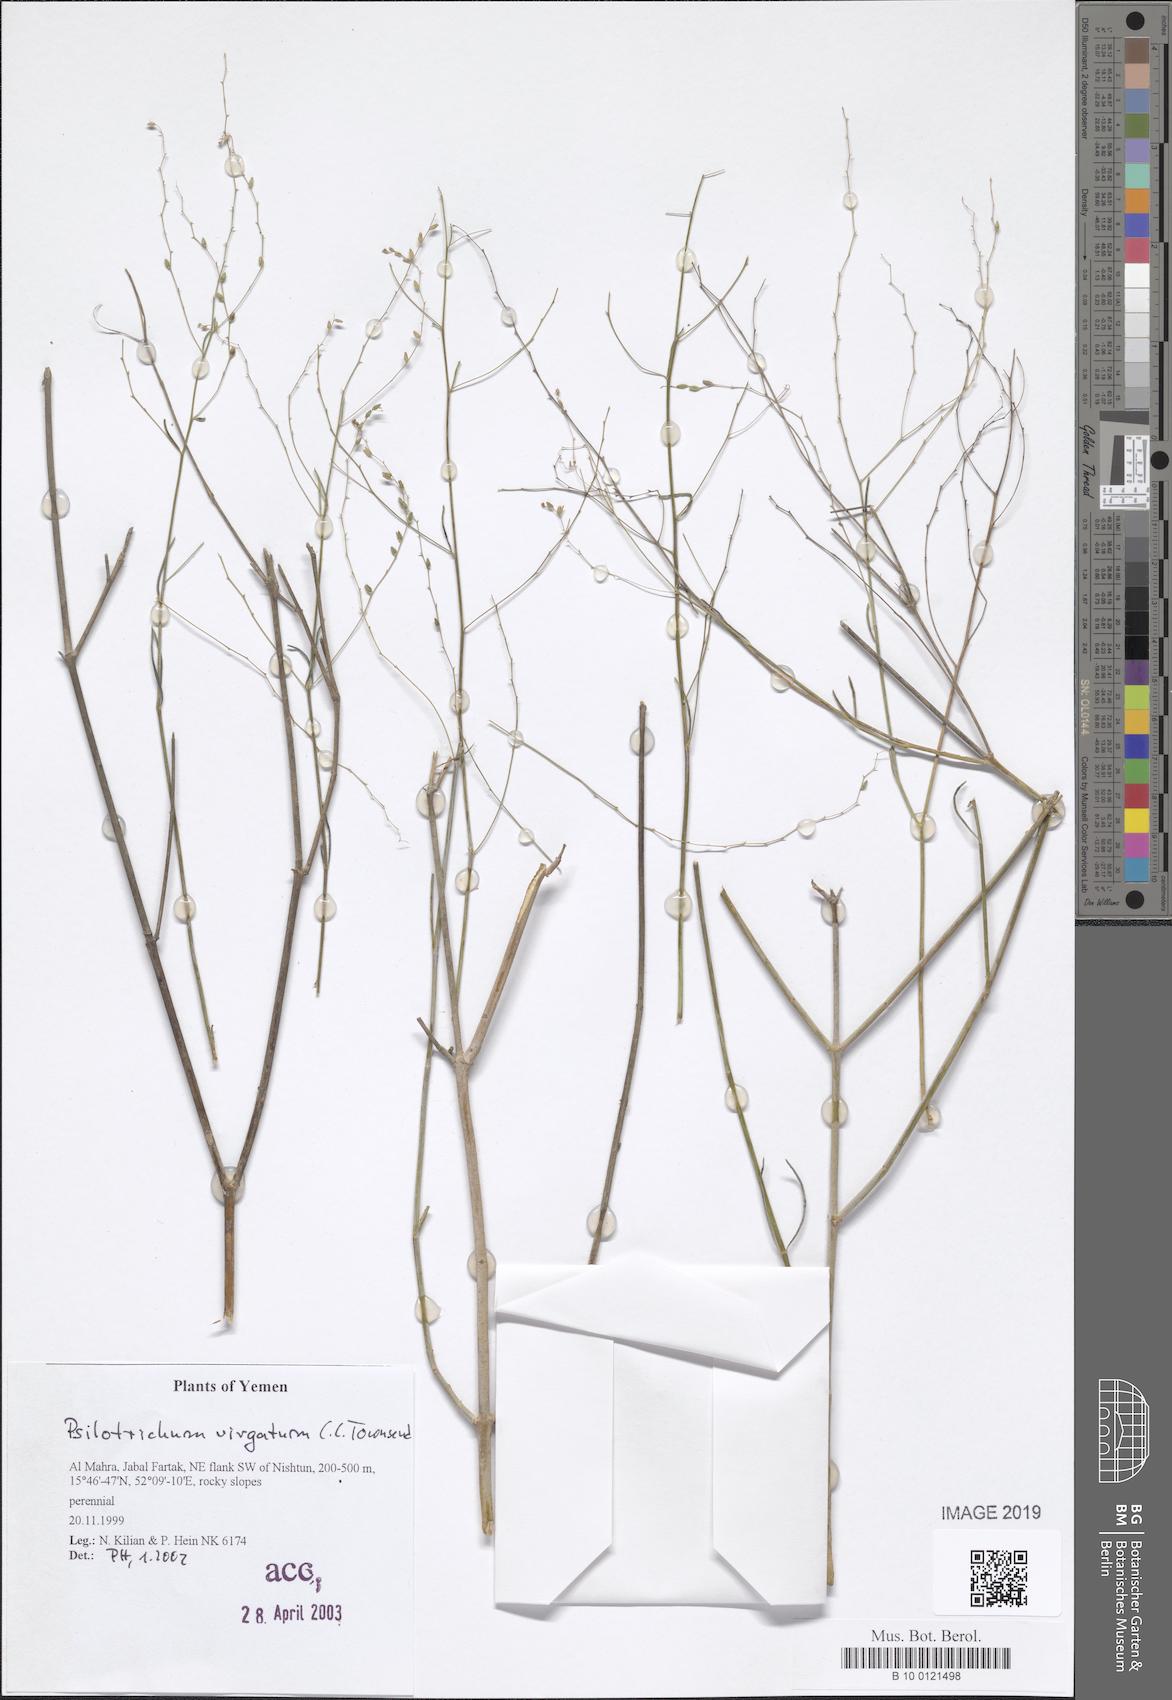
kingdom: Plantae
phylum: Tracheophyta
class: Magnoliopsida
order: Caryophyllales
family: Amaranthaceae
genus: Psilotrichum
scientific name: Psilotrichum virgatum
